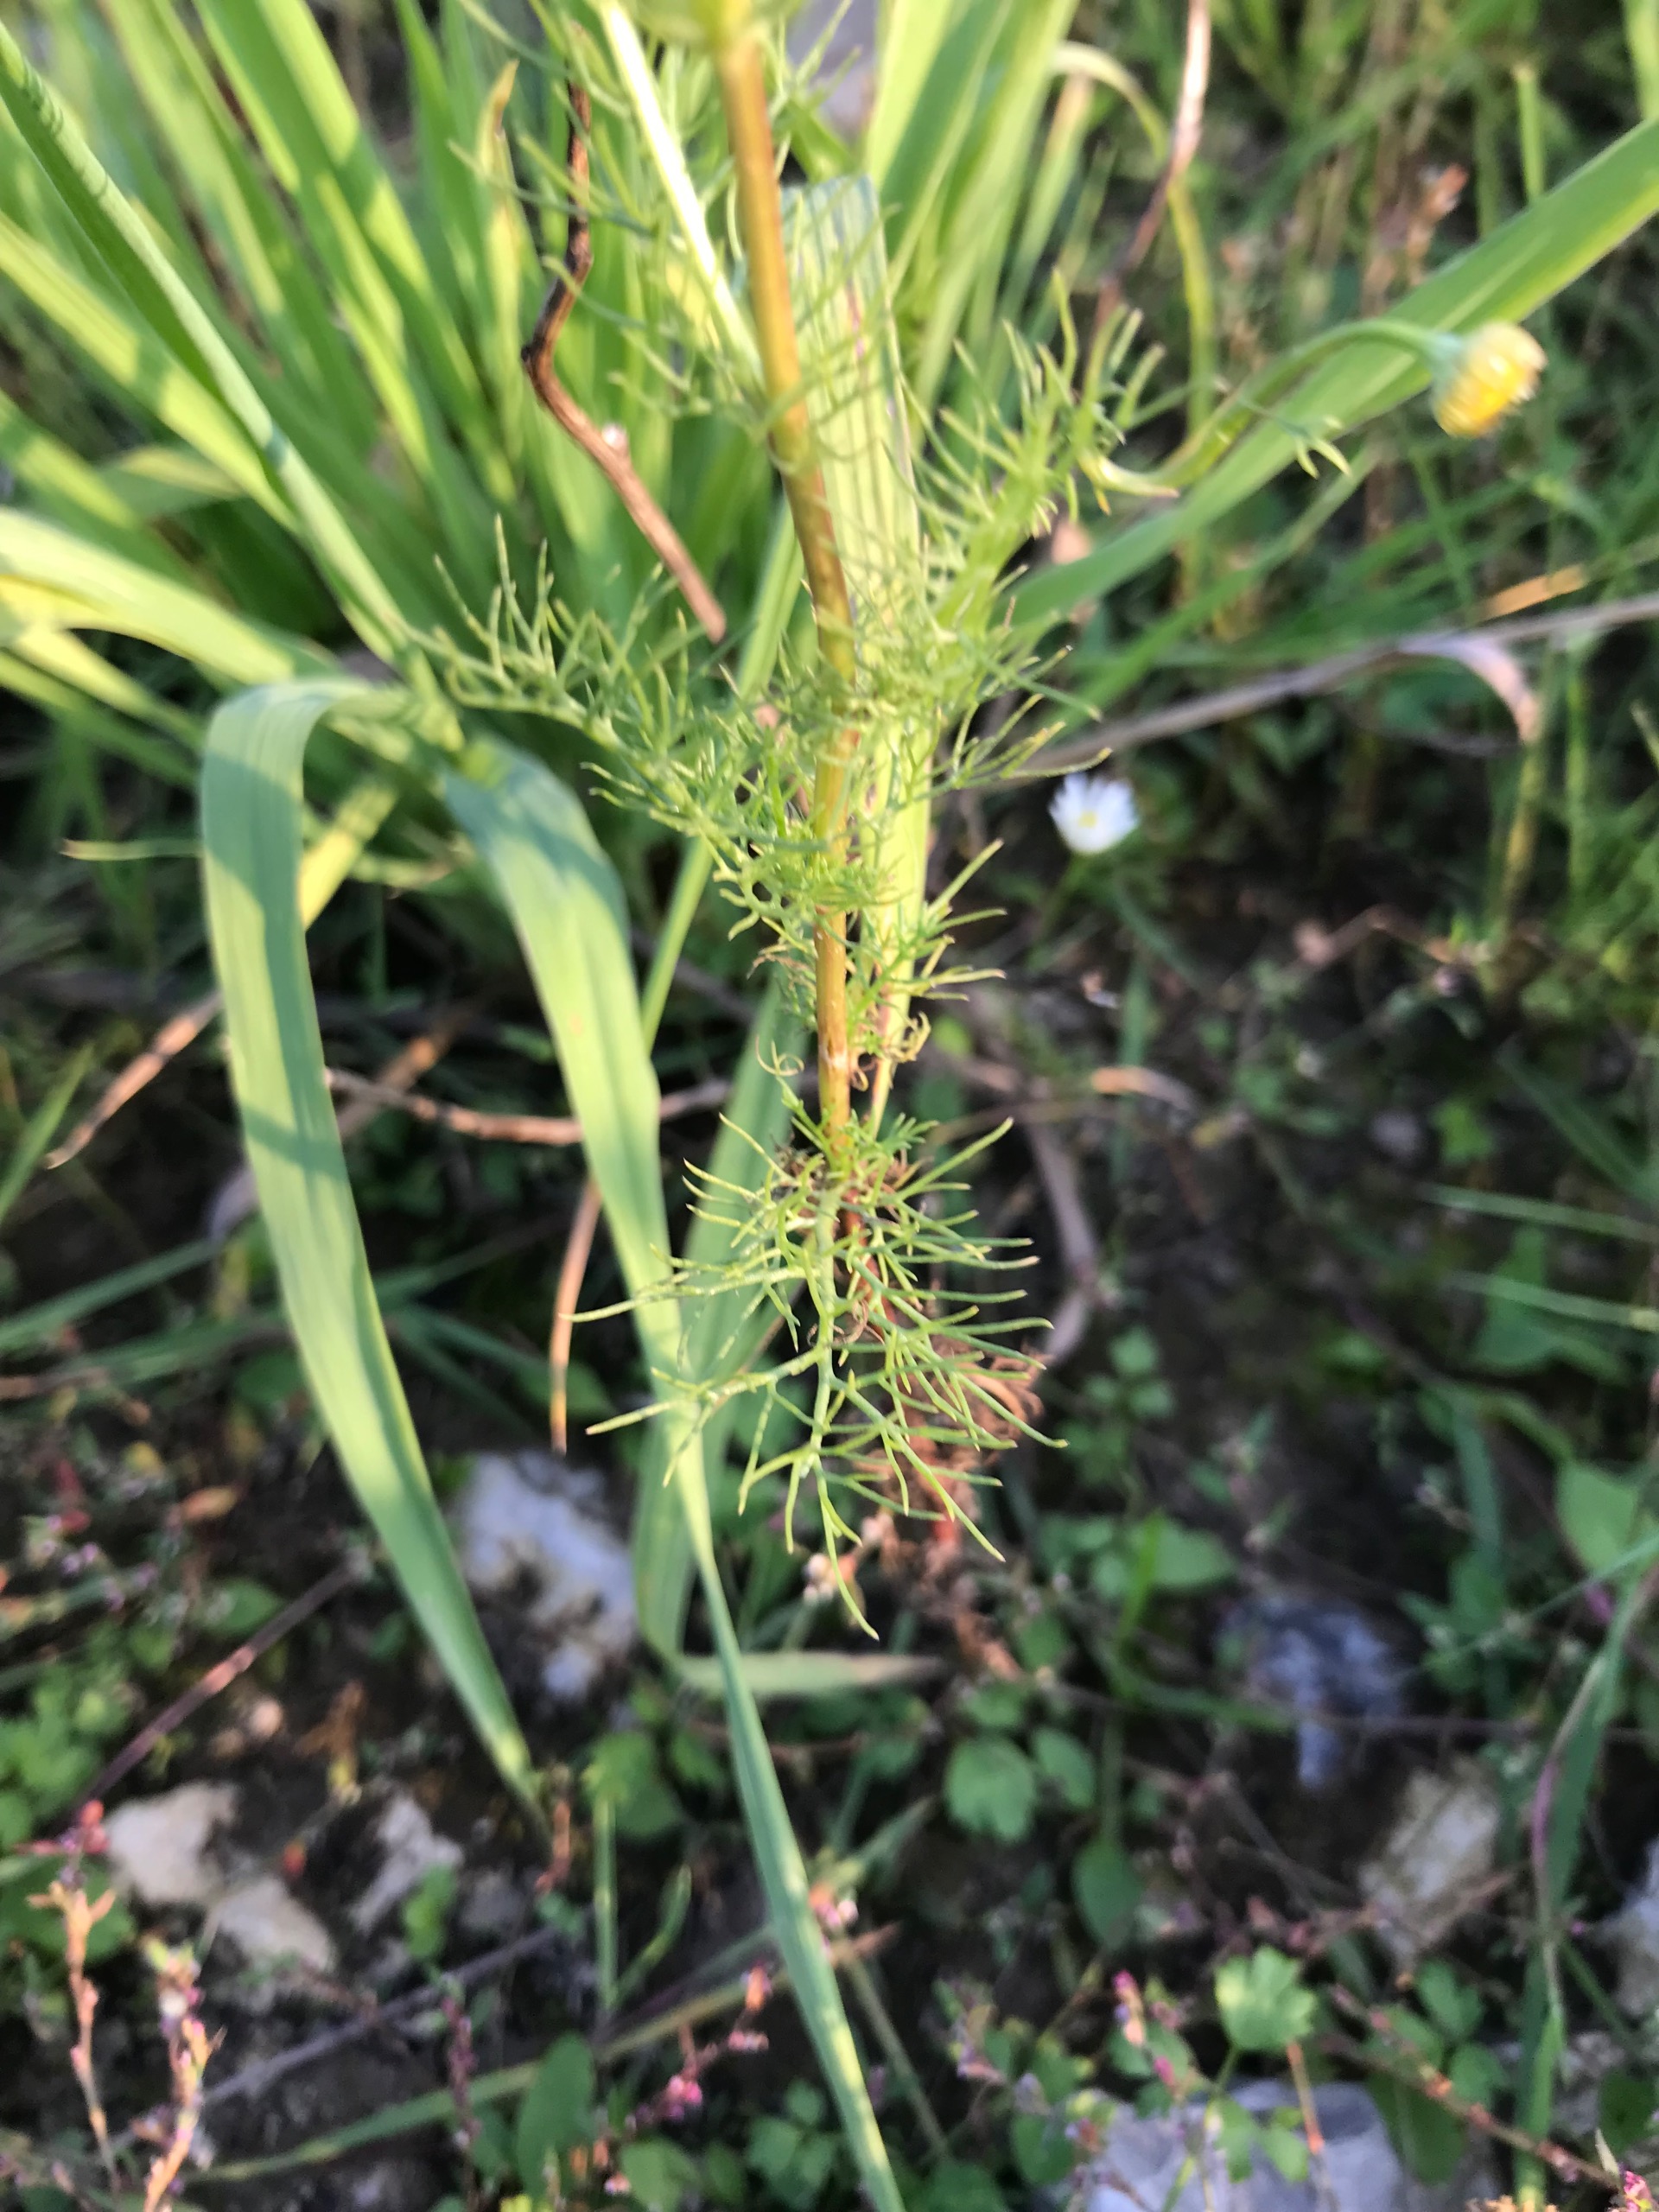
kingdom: Plantae
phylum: Tracheophyta
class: Magnoliopsida
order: Asterales
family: Asteraceae
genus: Tripleurospermum
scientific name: Tripleurospermum inodorum
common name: Lugtløs kamille
